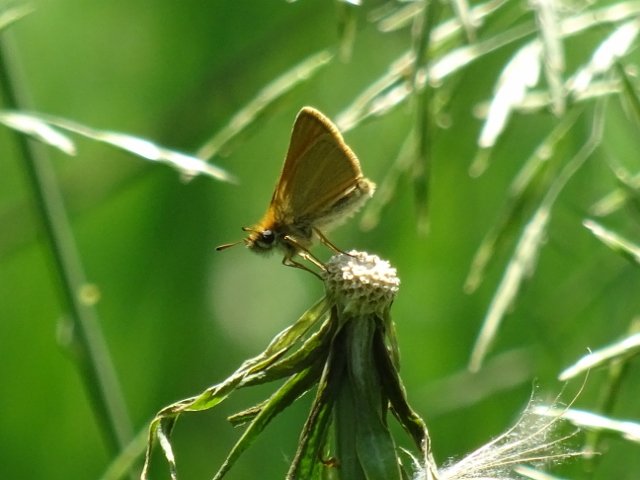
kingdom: Animalia
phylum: Arthropoda
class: Insecta
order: Lepidoptera
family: Hesperiidae
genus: Thymelicus
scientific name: Thymelicus lineola
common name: European Skipper
